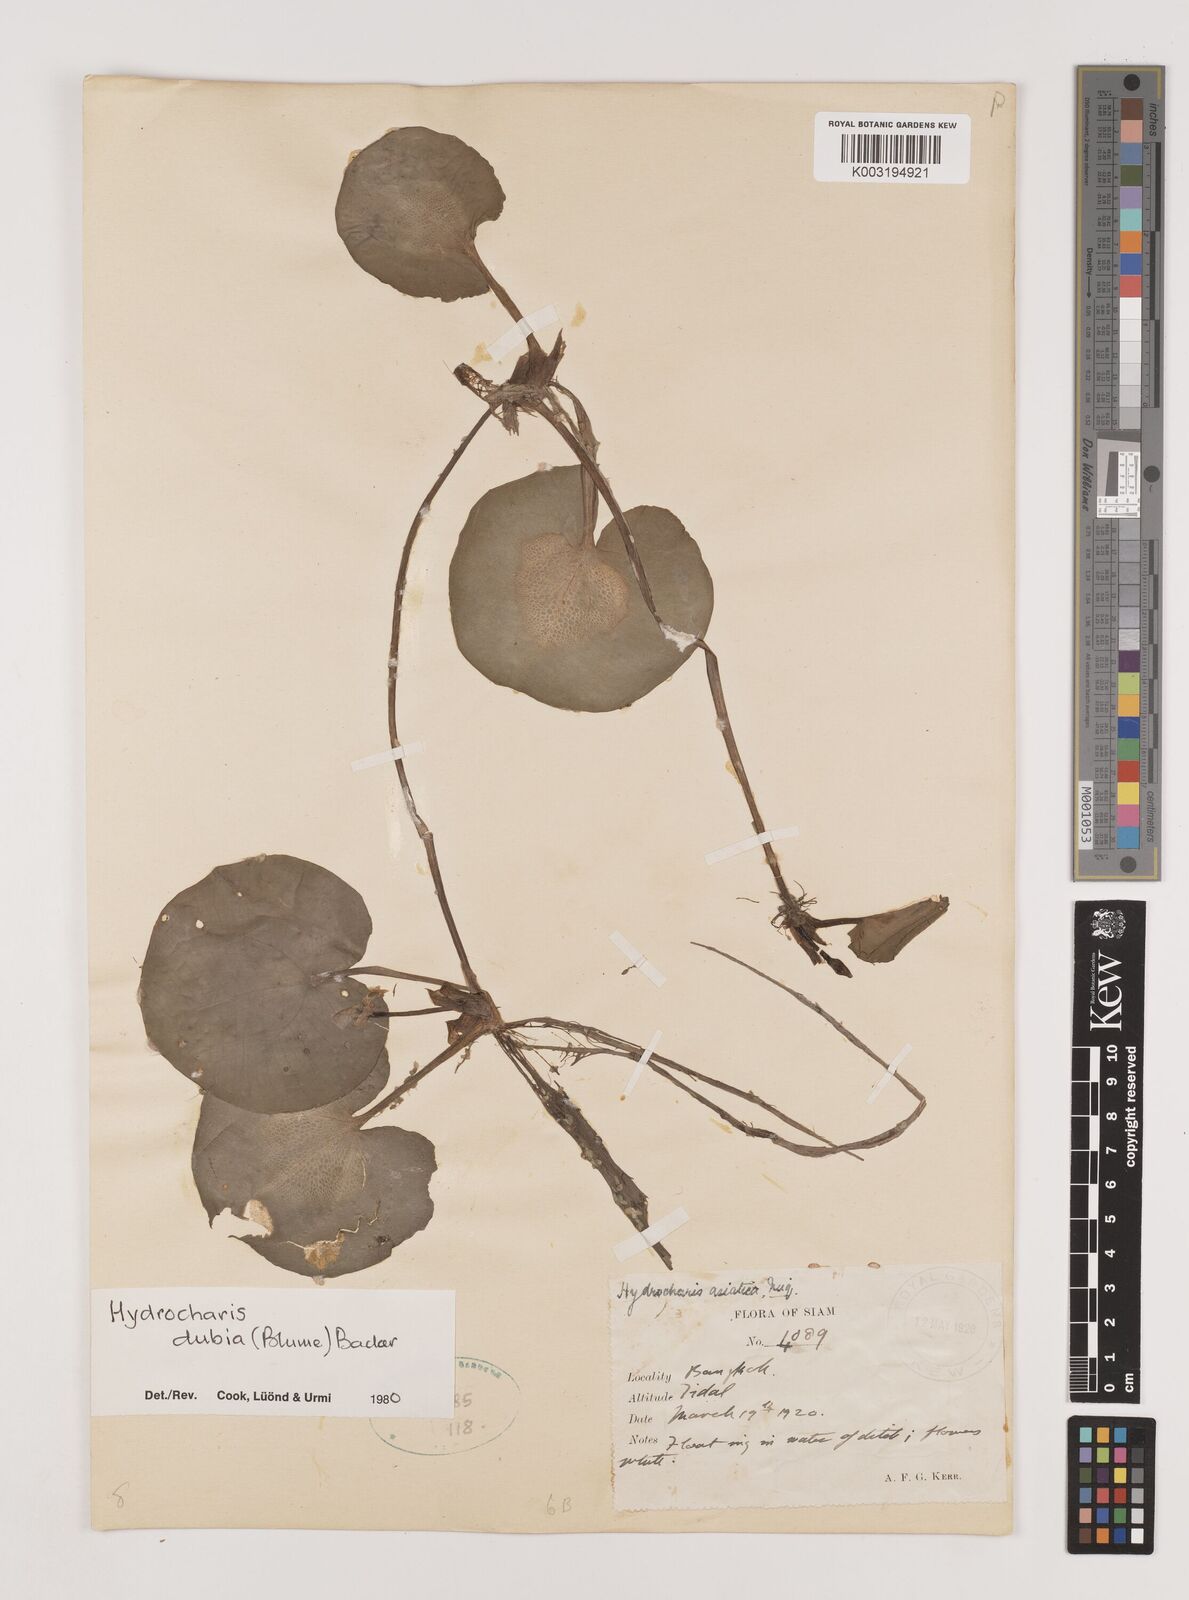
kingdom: Plantae
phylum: Tracheophyta
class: Liliopsida
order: Alismatales
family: Hydrocharitaceae
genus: Hydrocharis
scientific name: Hydrocharis dubia
